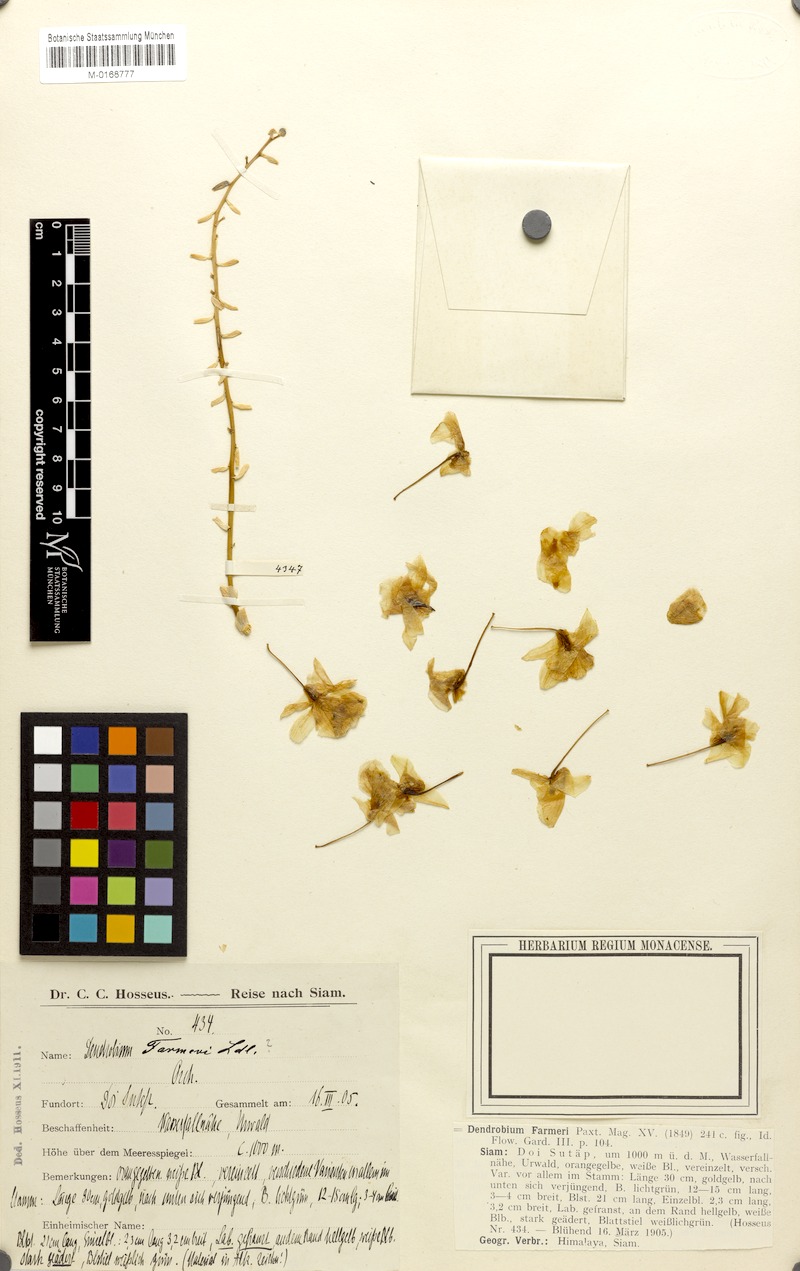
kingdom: Plantae
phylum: Tracheophyta
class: Liliopsida
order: Asparagales
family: Orchidaceae
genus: Dendrobium
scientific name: Dendrobium farmeri
